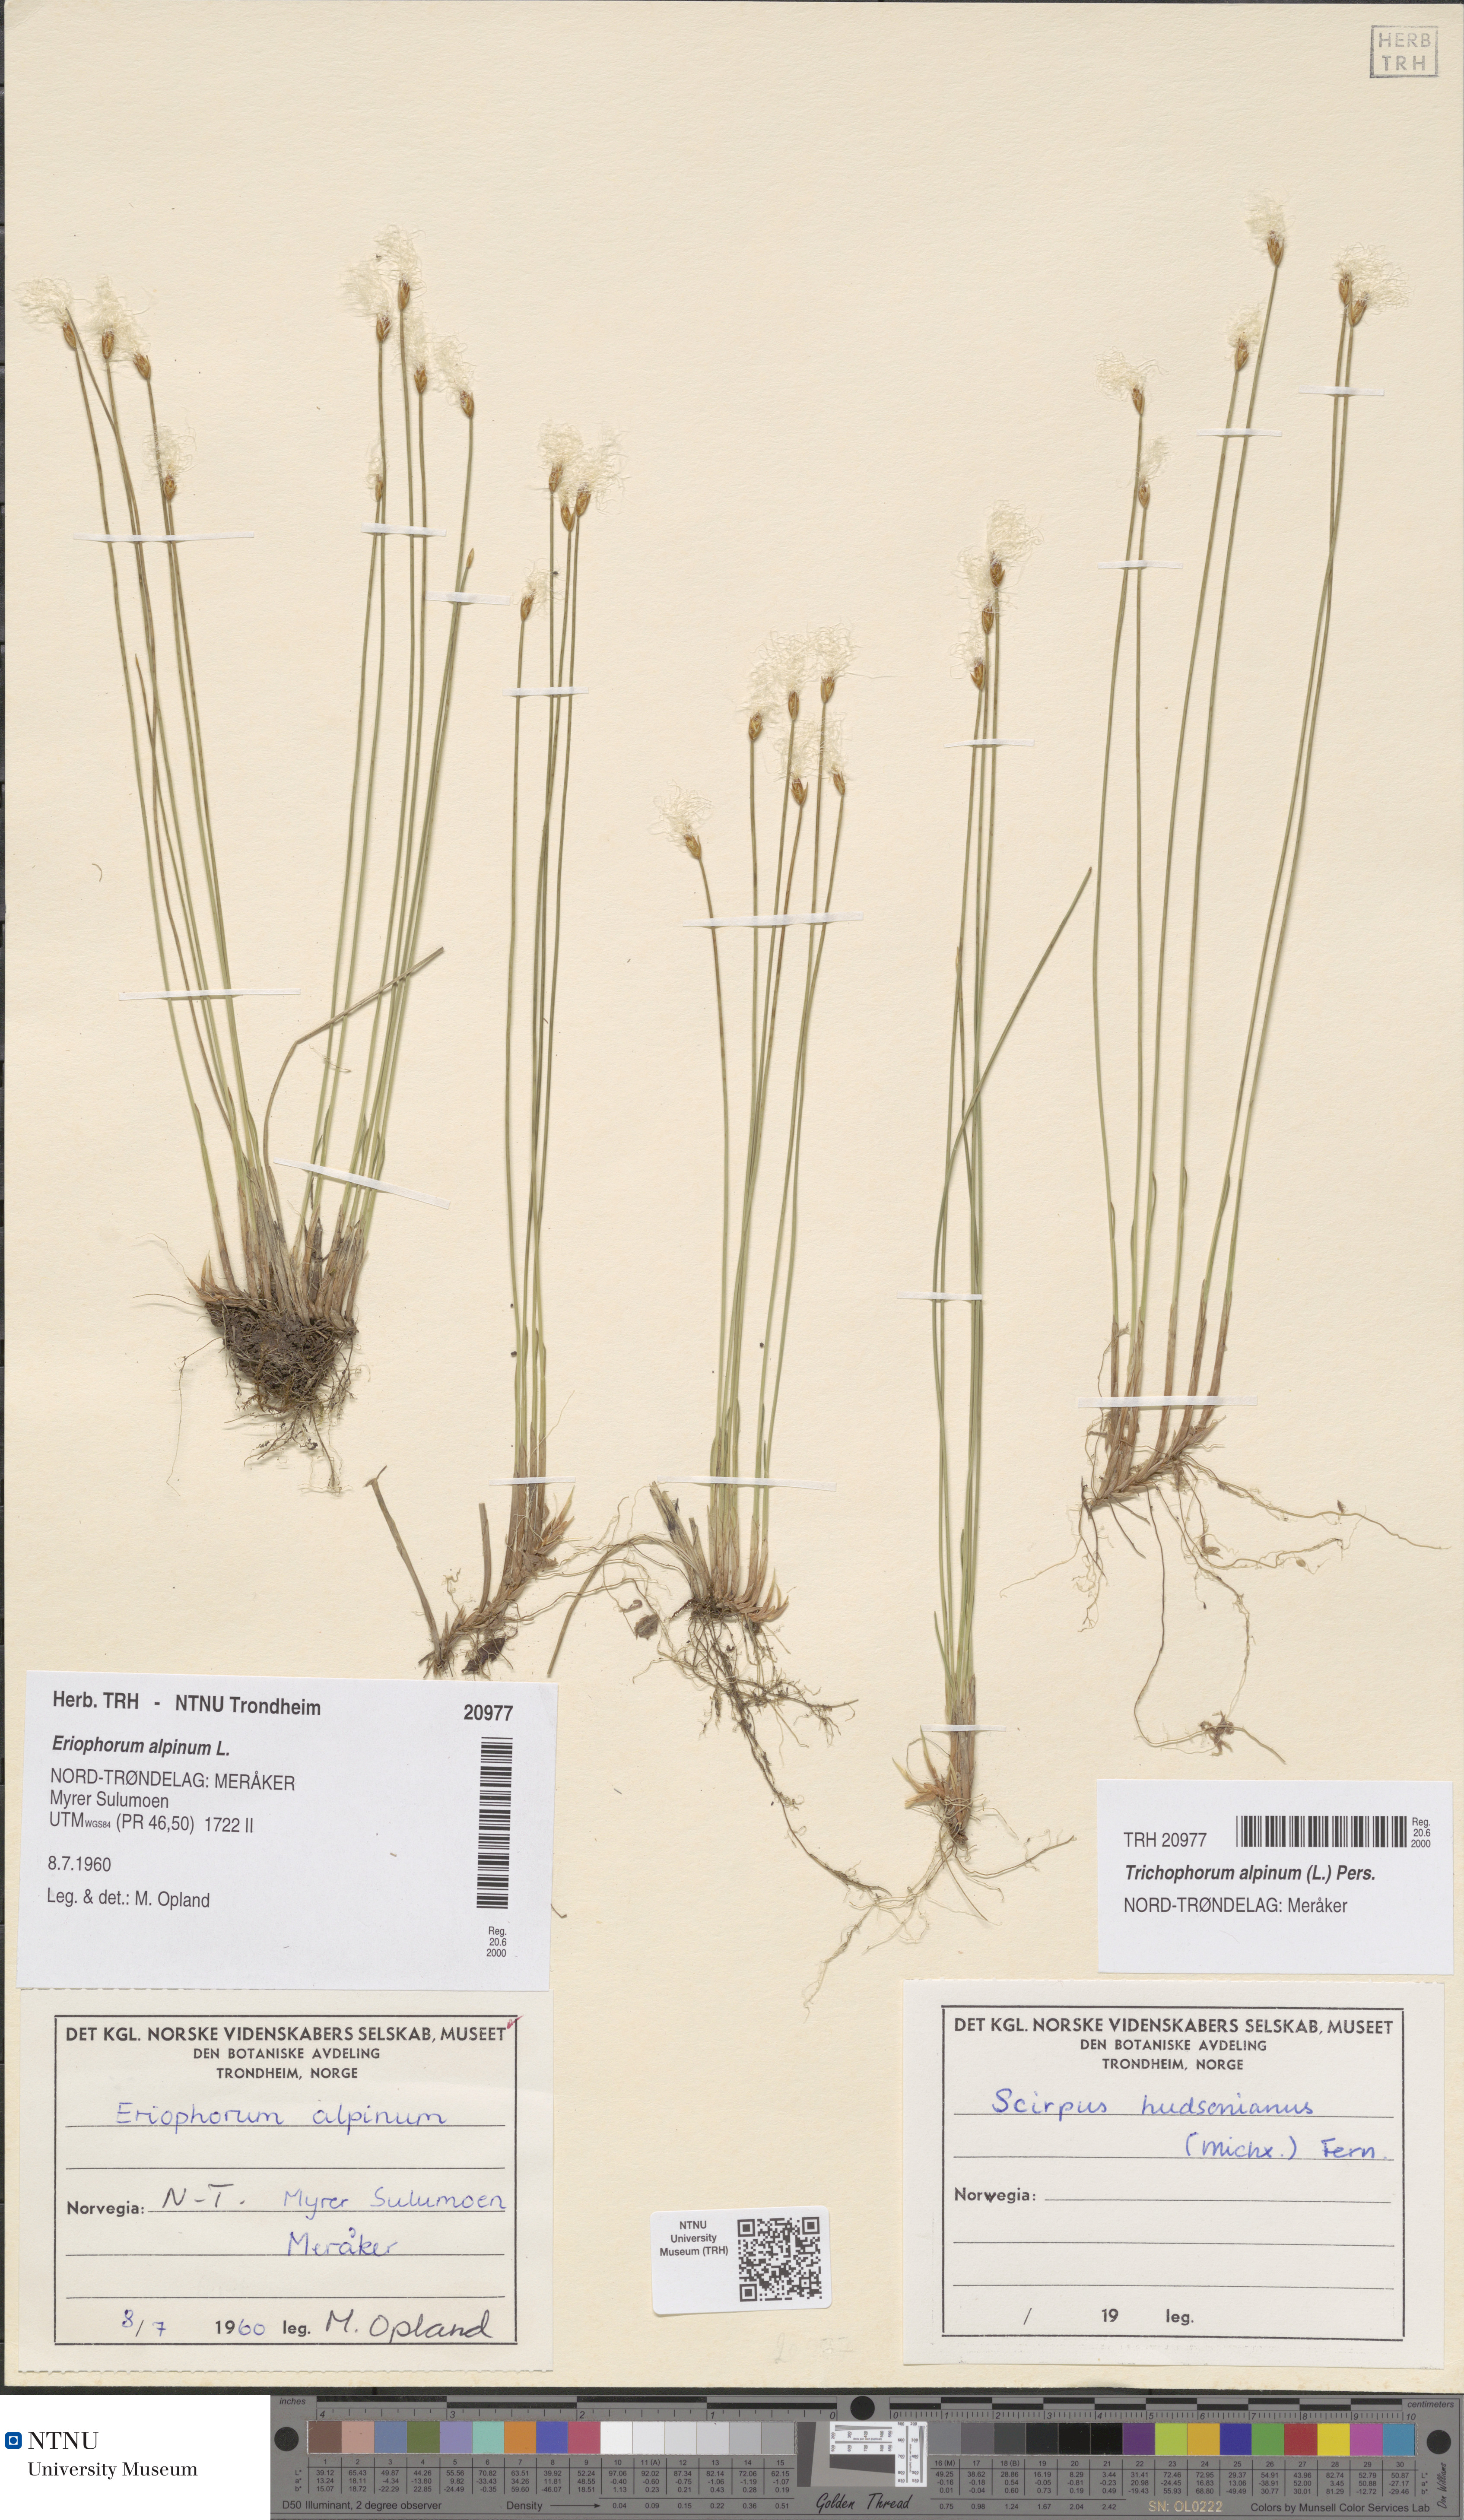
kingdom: Plantae
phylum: Tracheophyta
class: Liliopsida
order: Poales
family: Cyperaceae
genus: Trichophorum
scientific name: Trichophorum alpinum
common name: Alpine bulrush
